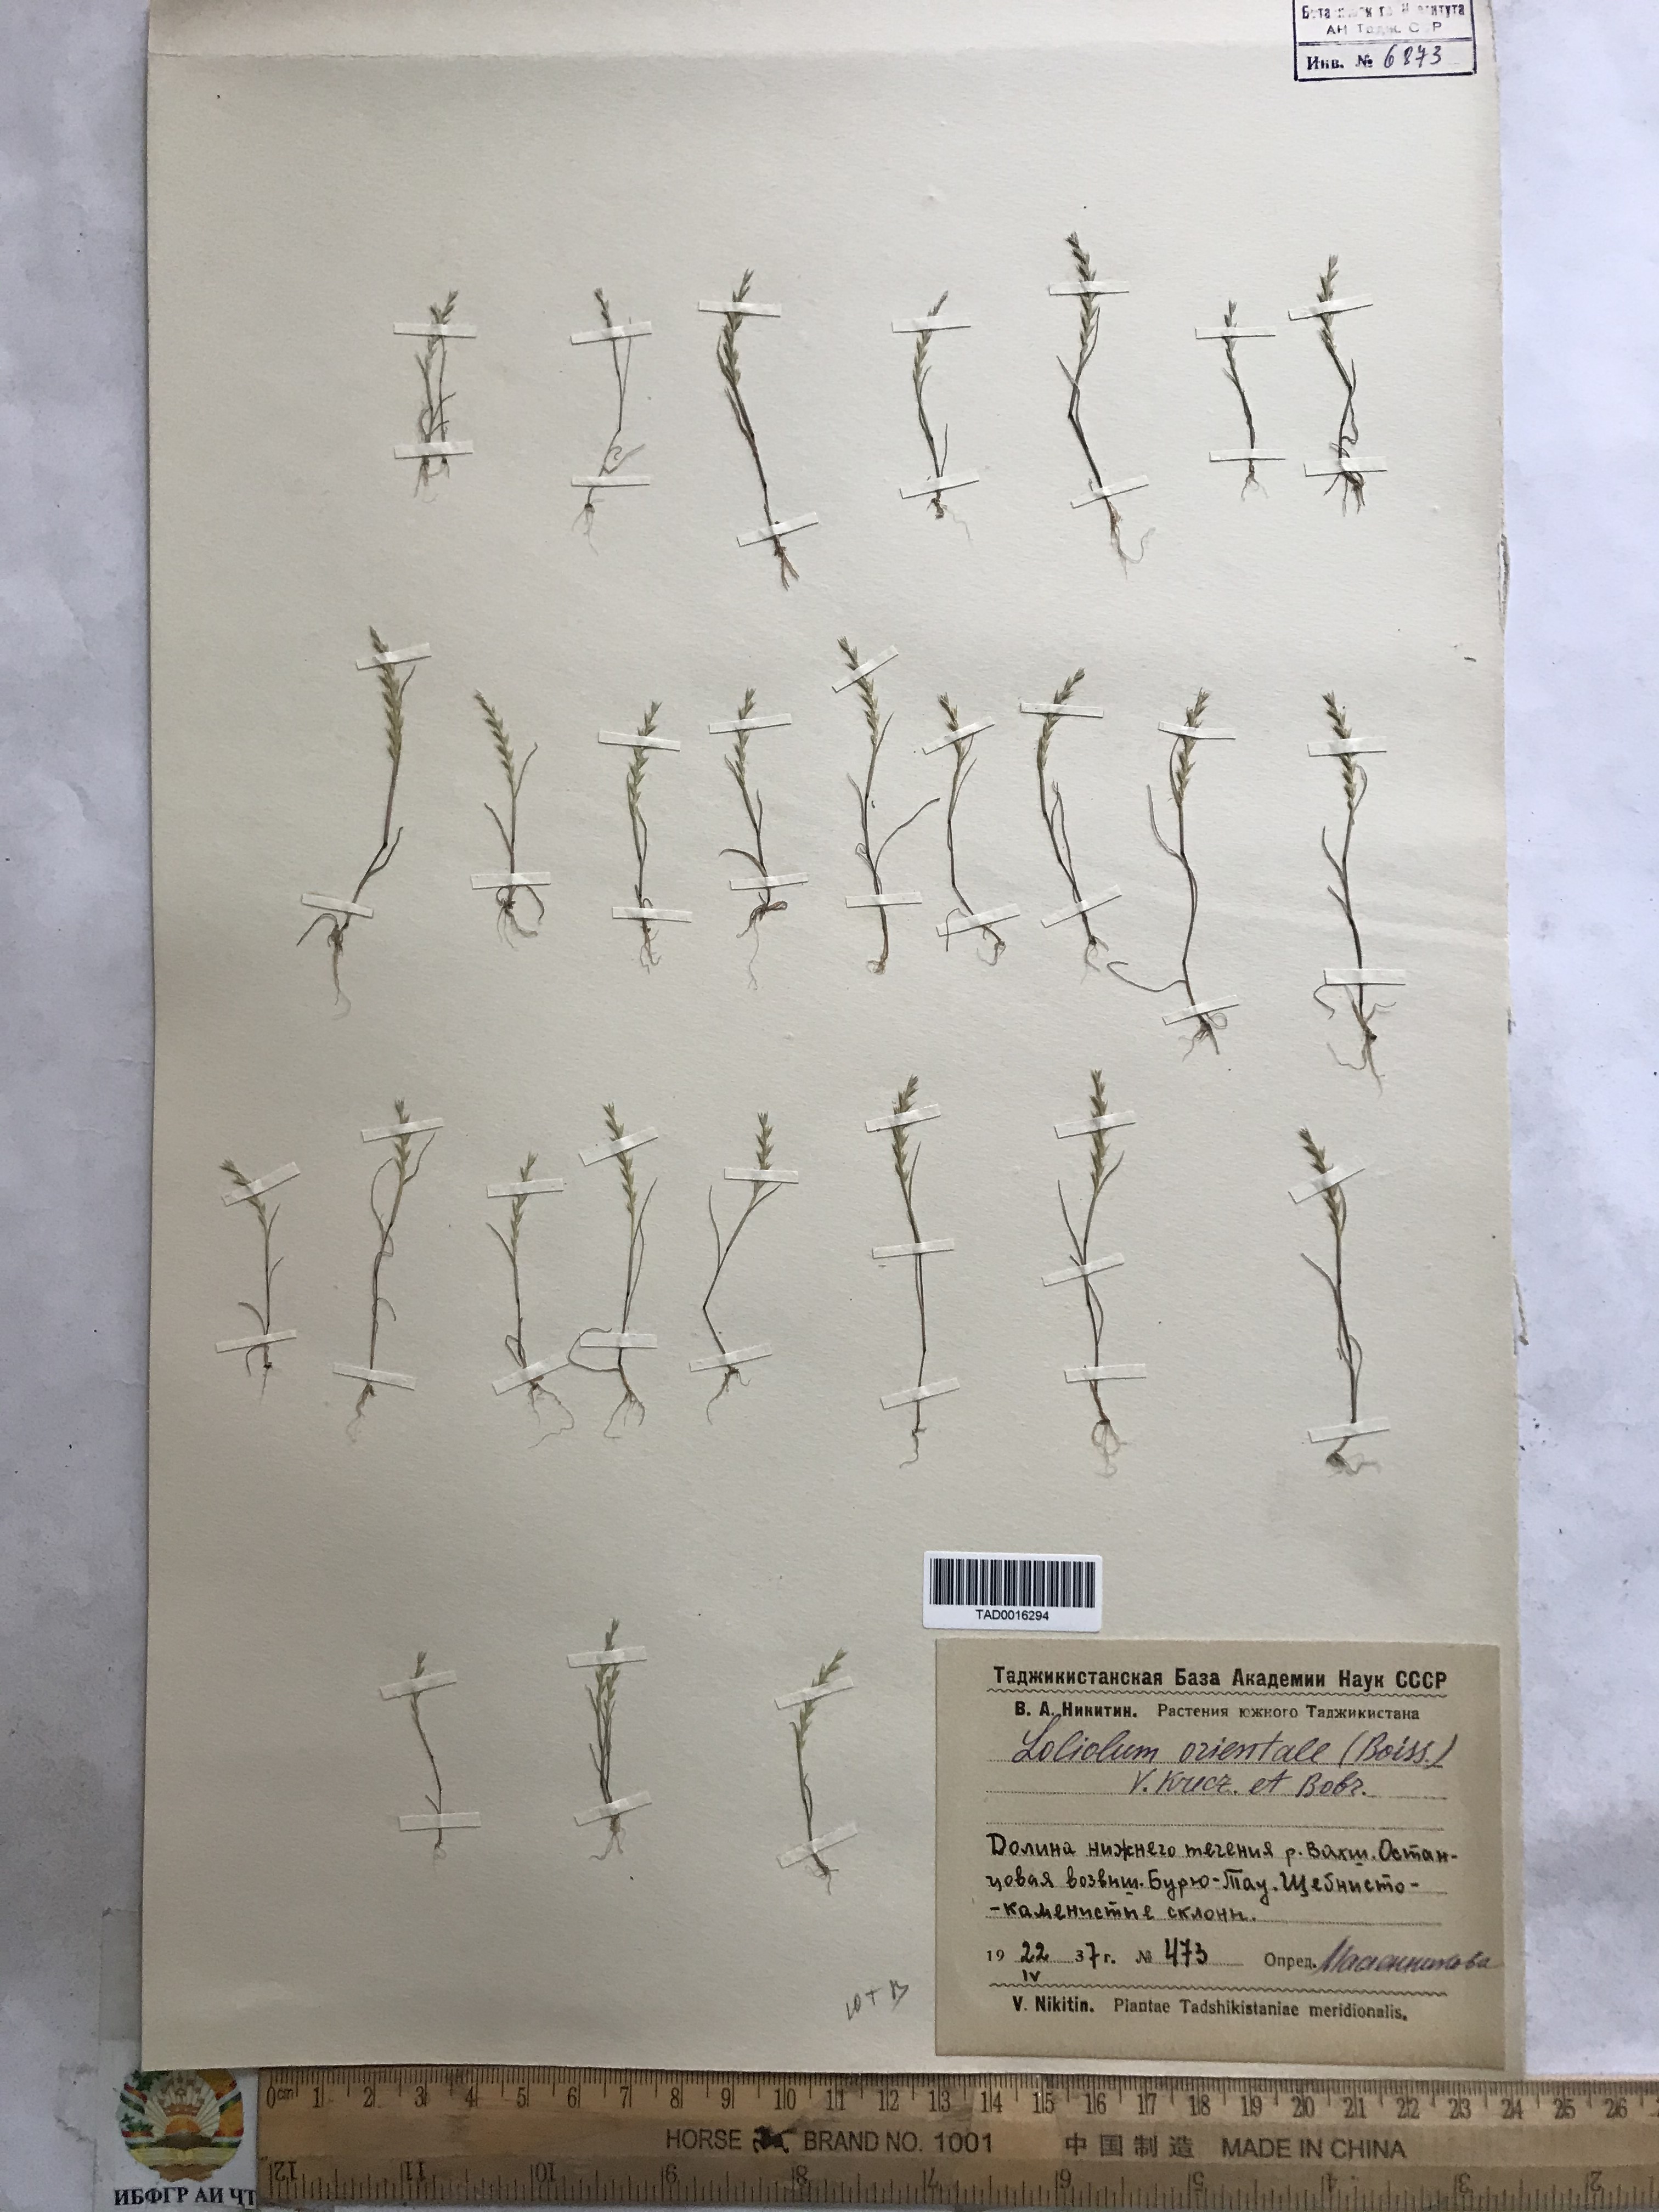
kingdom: Plantae
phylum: Tracheophyta
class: Liliopsida
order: Poales
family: Poaceae
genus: Festuca
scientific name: Festuca orientalis
